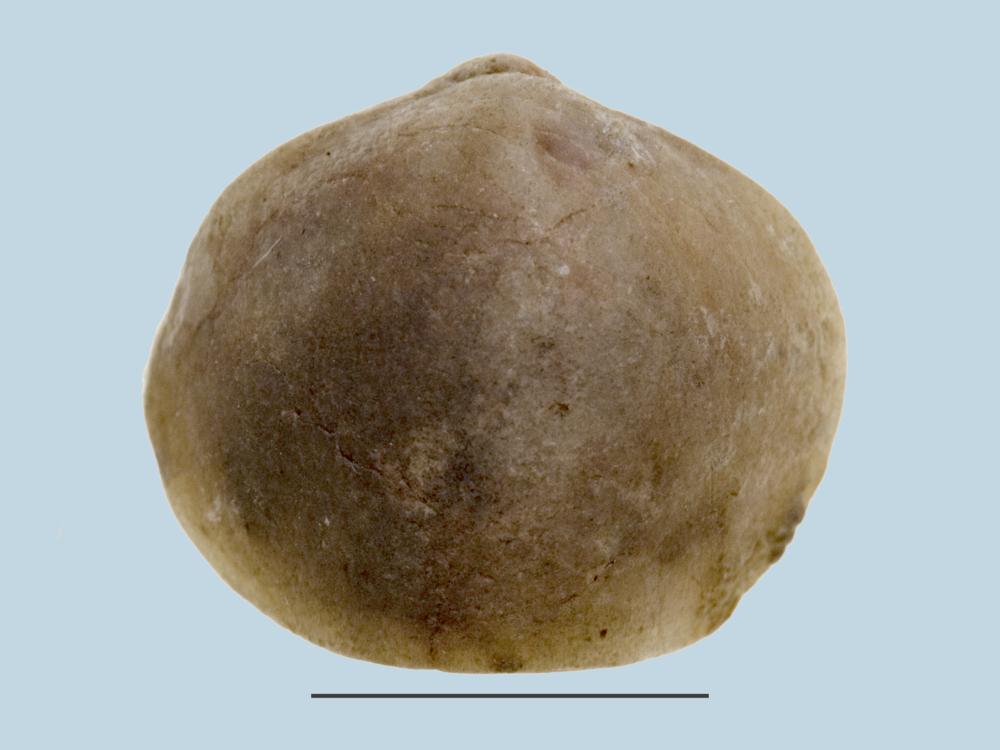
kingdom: Animalia
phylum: Brachiopoda
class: Rhynchonellata
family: Angusticardiniidae
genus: Angusticardinia
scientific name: Angusticardinia
